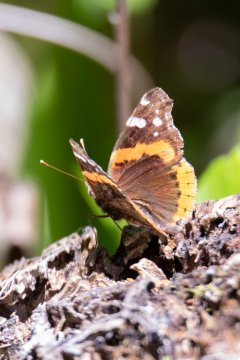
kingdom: Animalia
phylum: Arthropoda
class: Insecta
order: Lepidoptera
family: Nymphalidae
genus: Vanessa
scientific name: Vanessa atalanta
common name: Red Admiral
